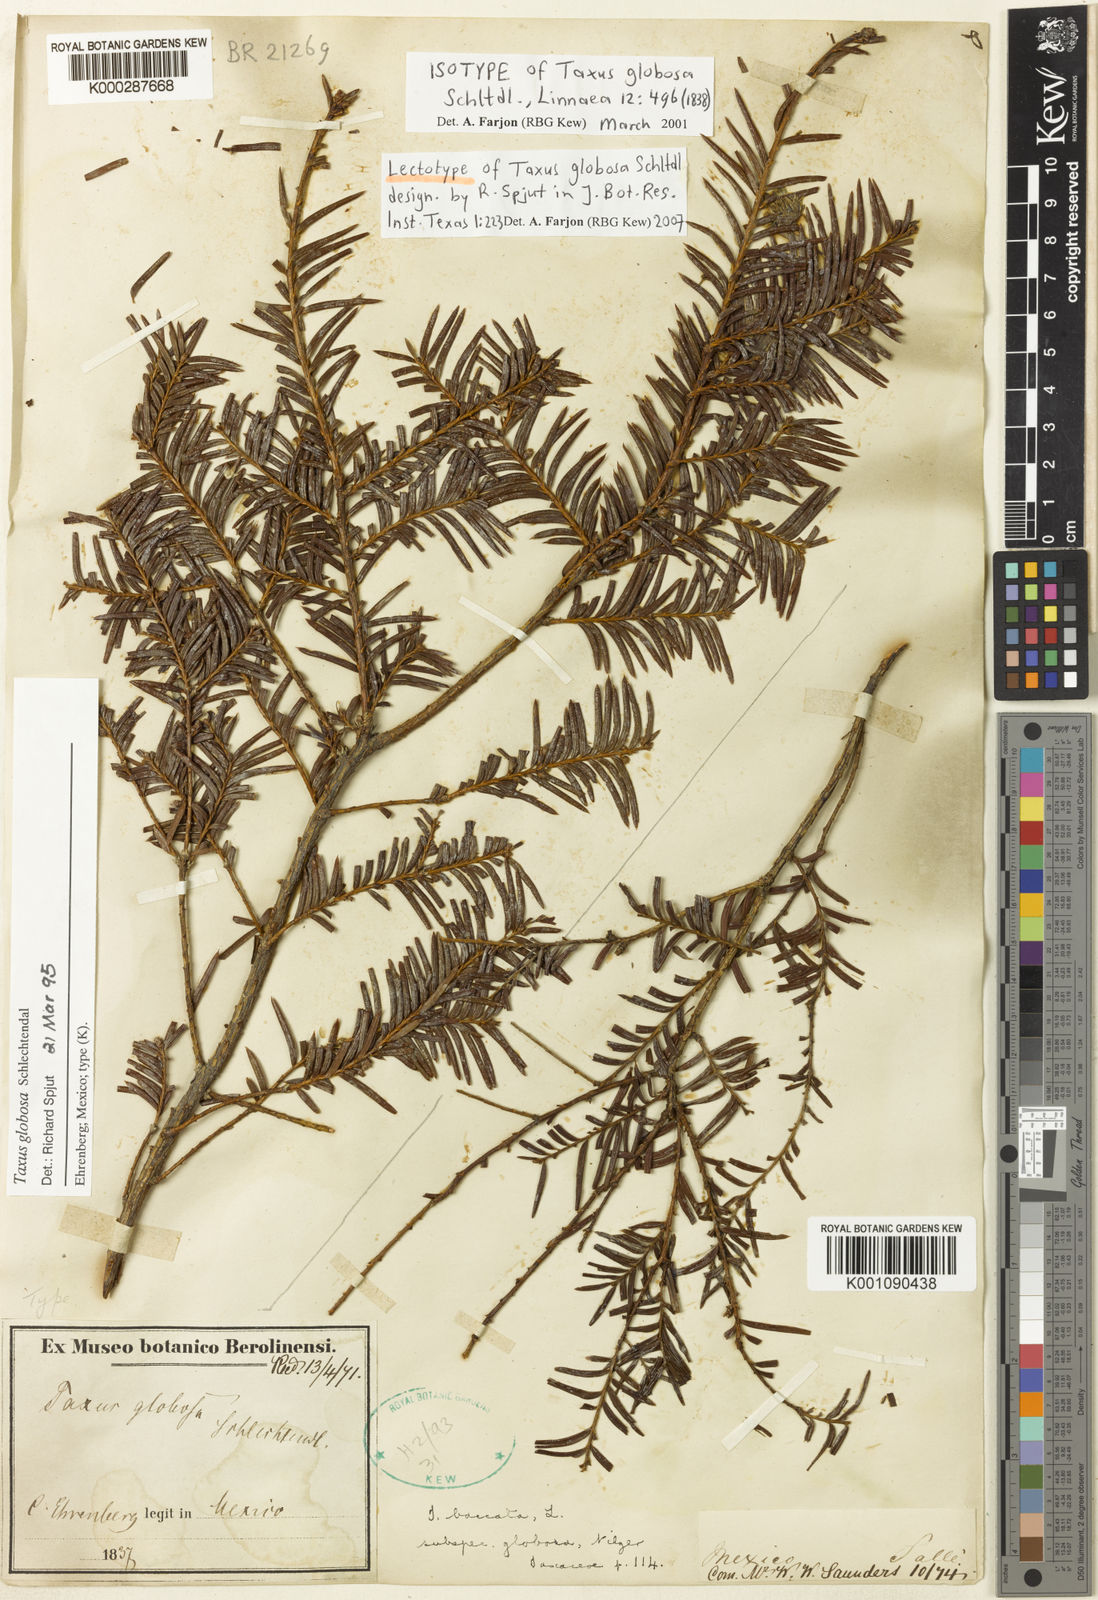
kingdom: Plantae
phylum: Tracheophyta
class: Pinopsida
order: Pinales
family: Taxaceae
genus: Taxus
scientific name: Taxus globosa
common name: Mexican yew
